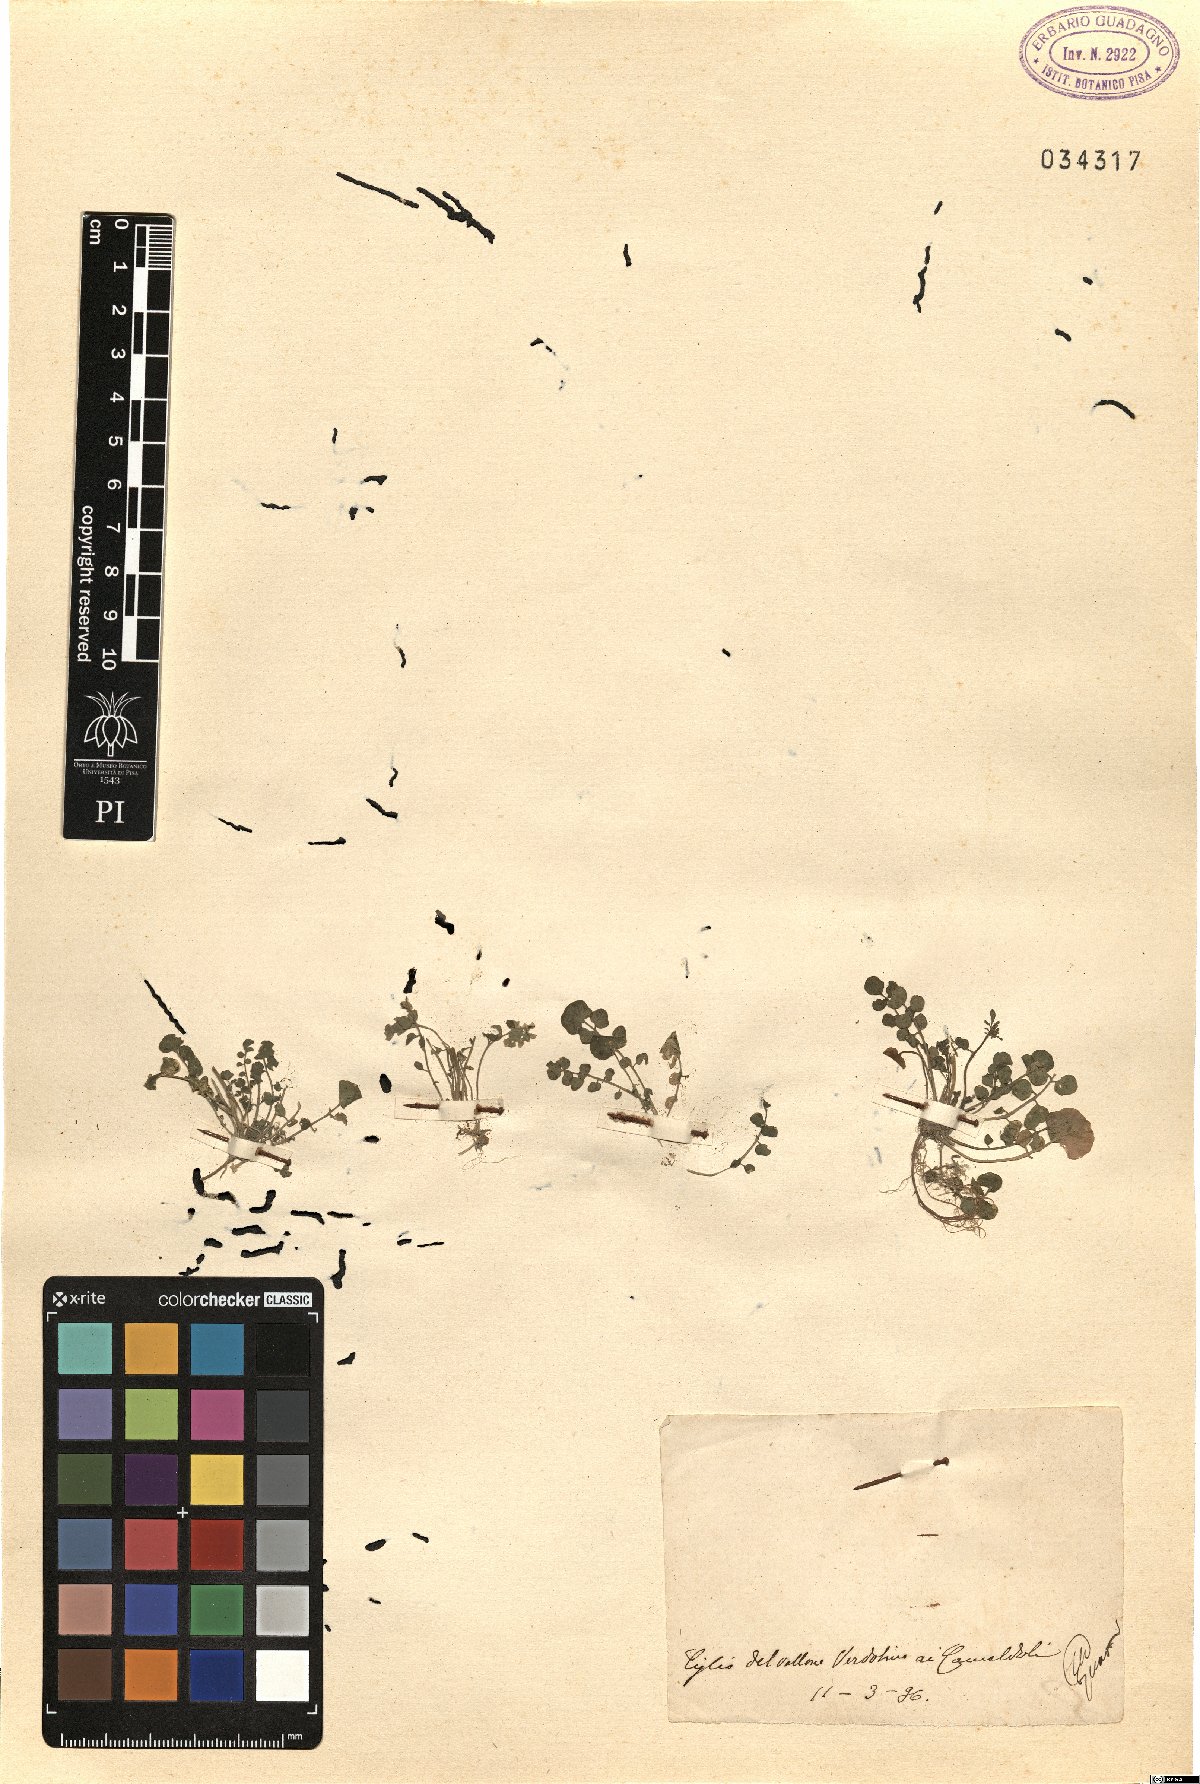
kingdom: Plantae
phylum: Tracheophyta
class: Magnoliopsida
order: Brassicales
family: Brassicaceae
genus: Cardamine
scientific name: Cardamine
